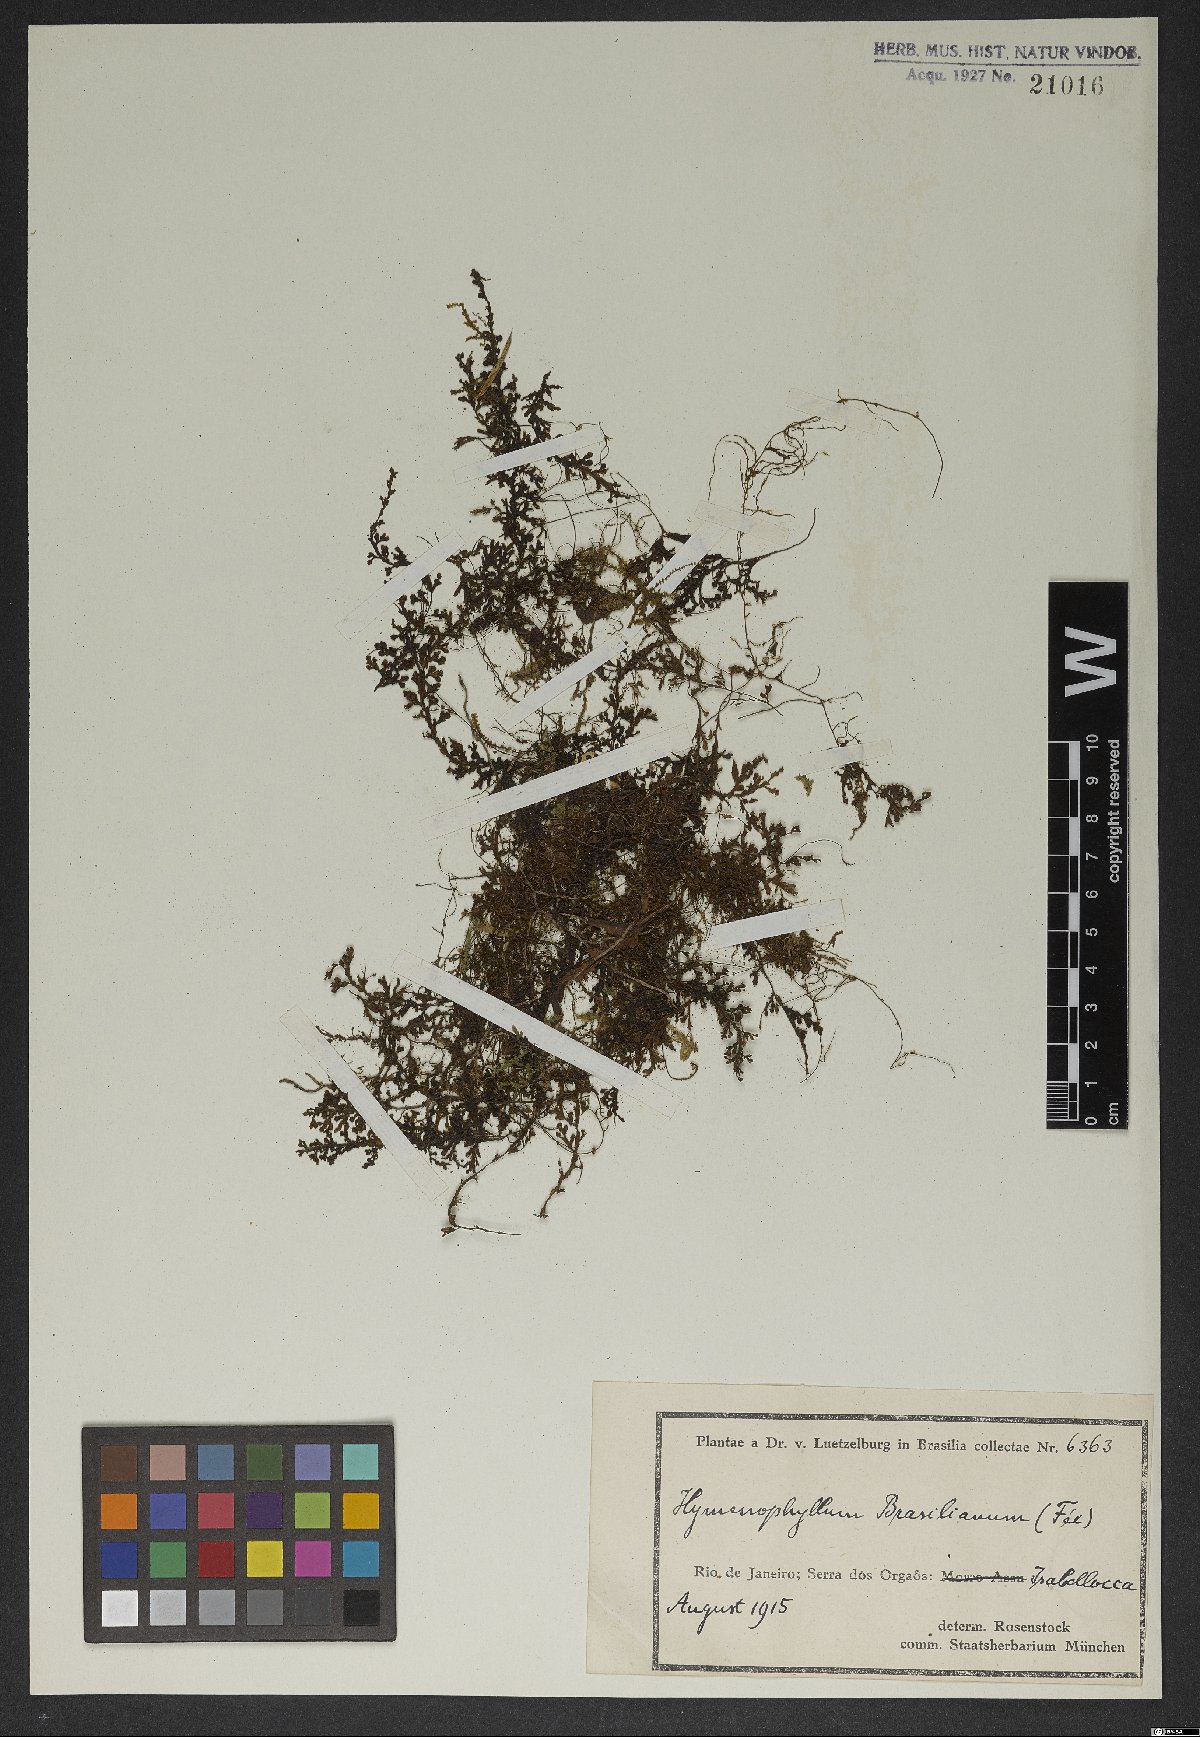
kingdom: Plantae
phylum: Tracheophyta
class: Polypodiopsida
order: Hymenophyllales
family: Hymenophyllaceae
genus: Hymenophyllum
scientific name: Hymenophyllum crispum
